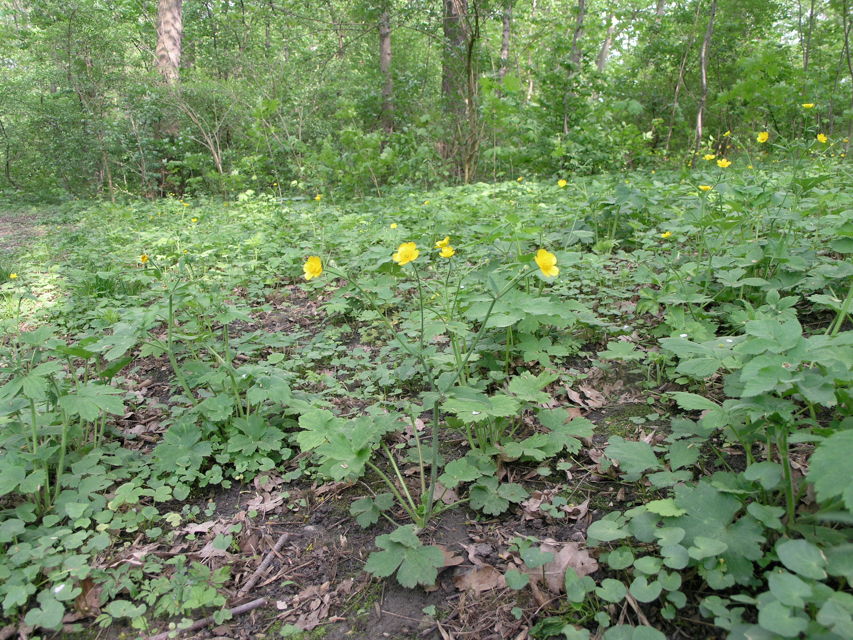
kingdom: Plantae
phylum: Tracheophyta
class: Magnoliopsida
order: Ranunculales
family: Ranunculaceae
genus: Ranunculus
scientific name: Ranunculus lanuginosus
